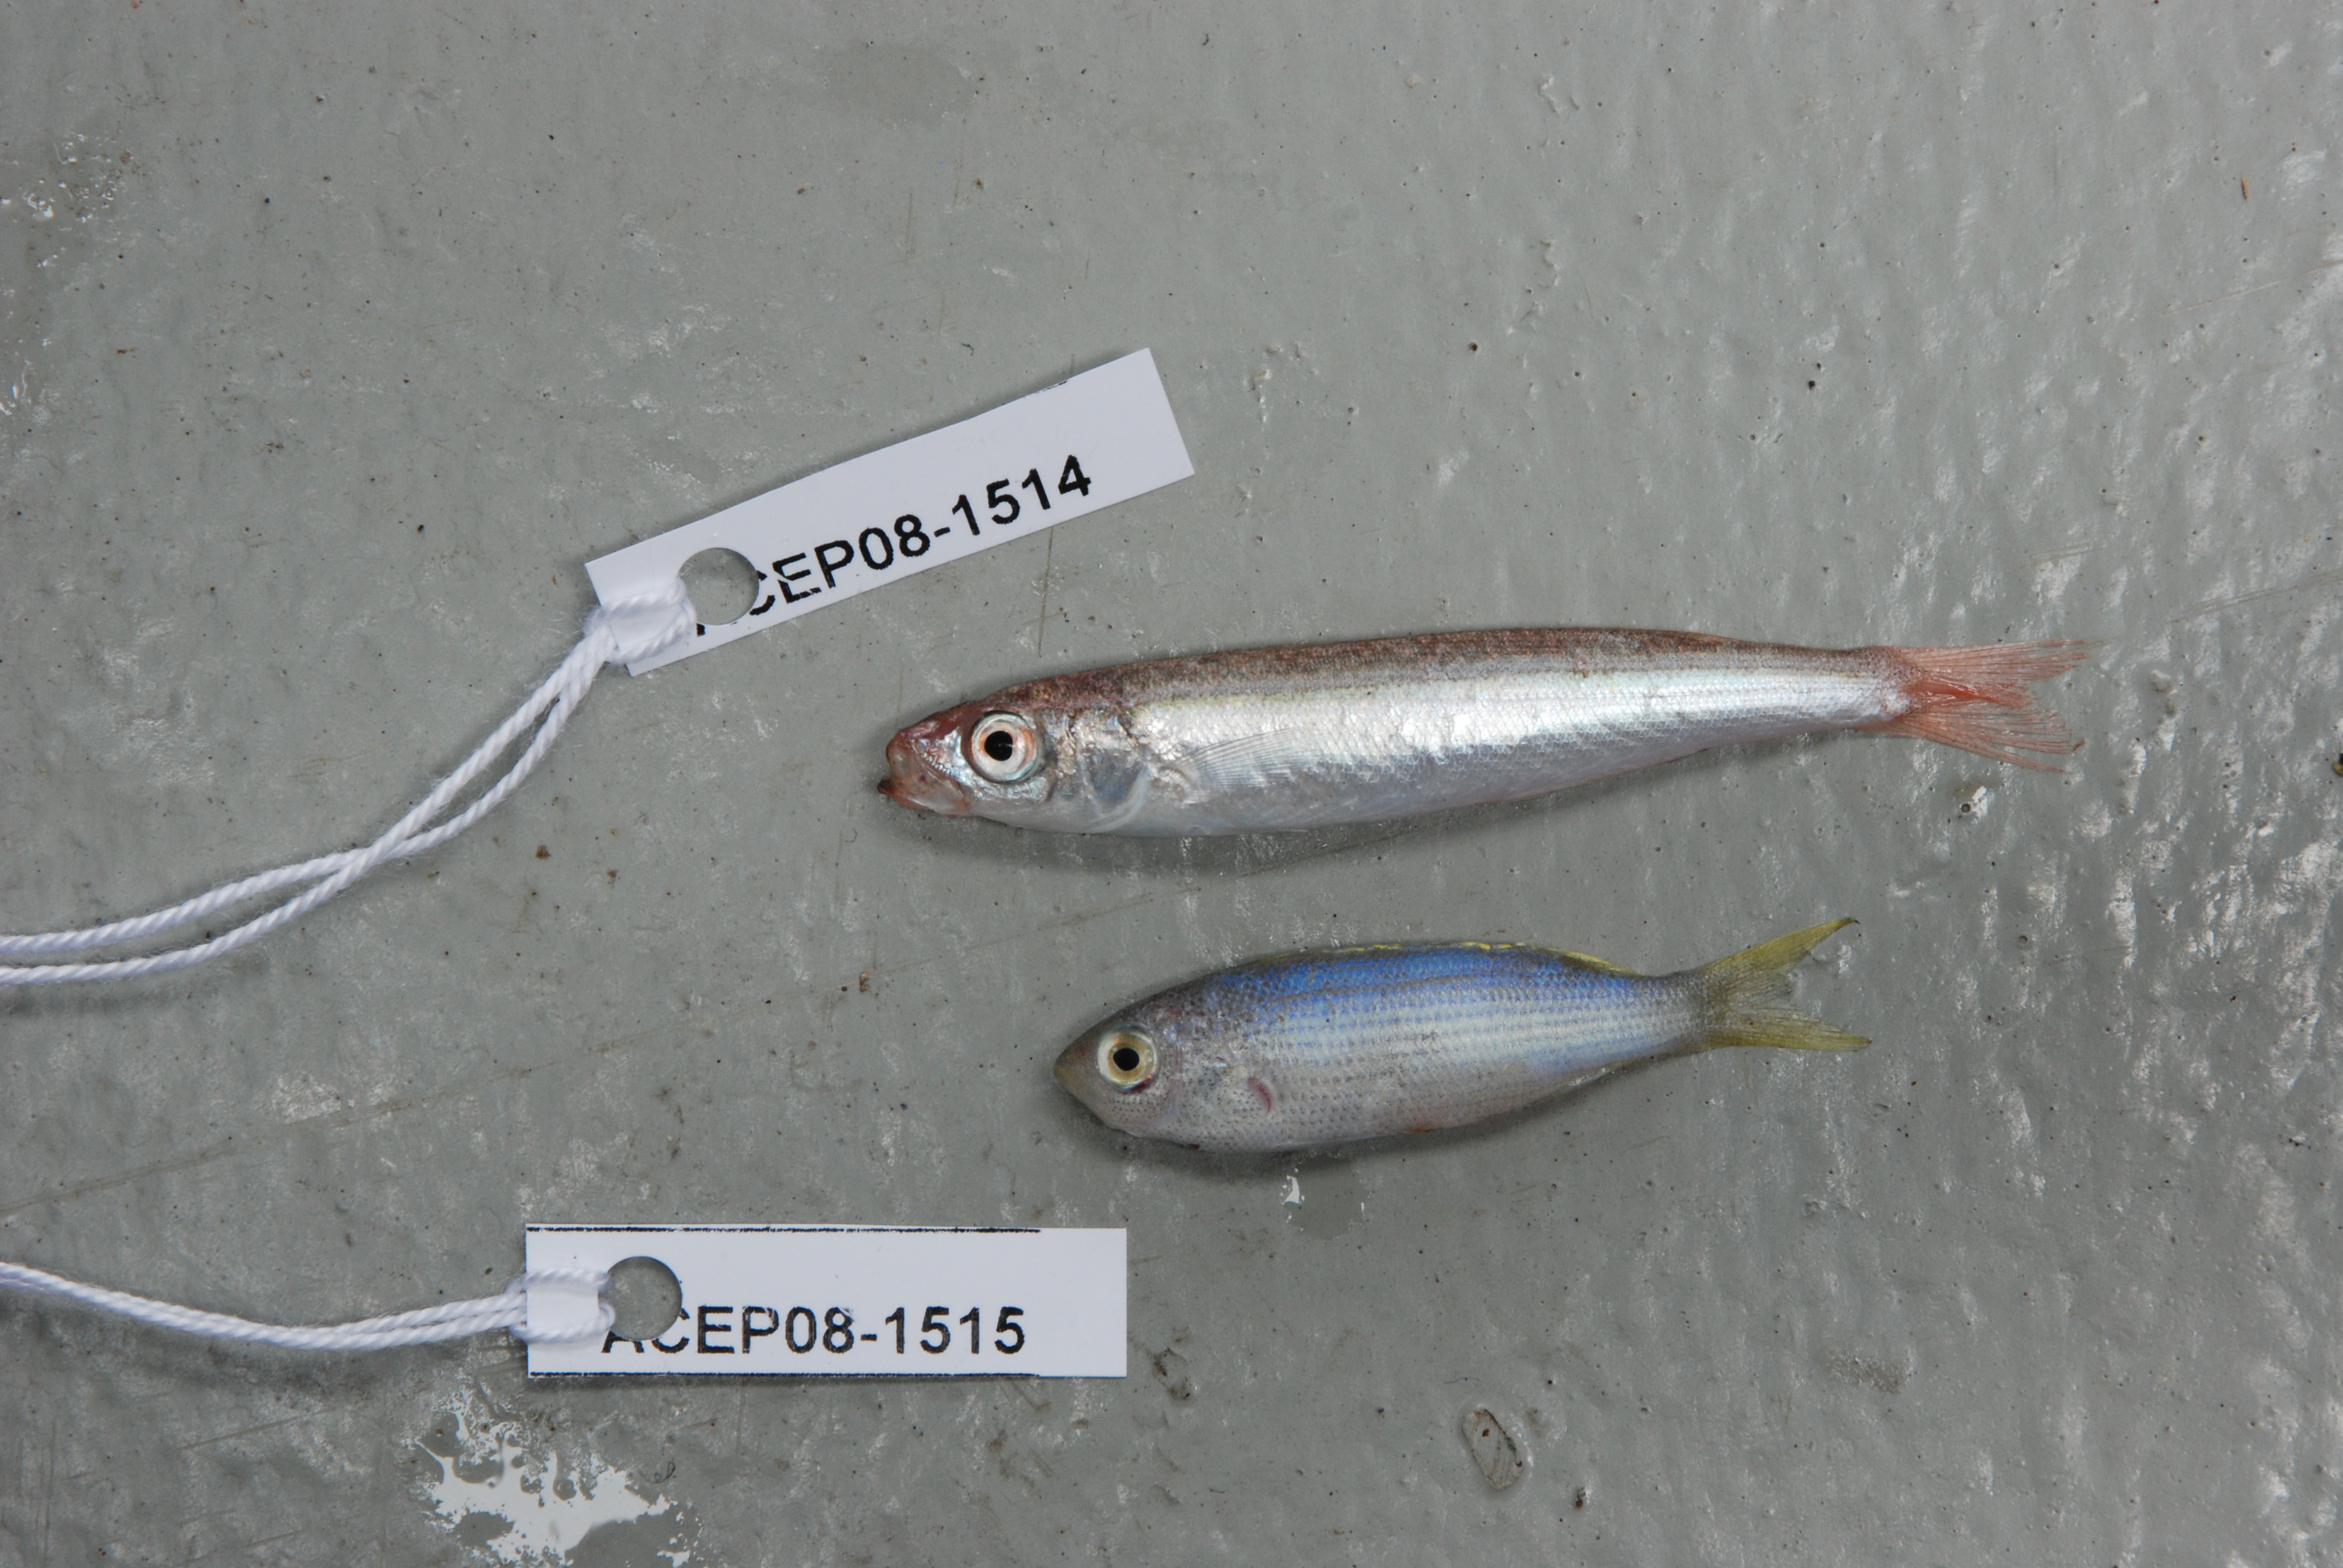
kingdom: Animalia
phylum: Chordata
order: Perciformes
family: Emmelichthyidae
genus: Emmelichthys
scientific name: Emmelichthys nitidus
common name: Cape bonnetmouth
